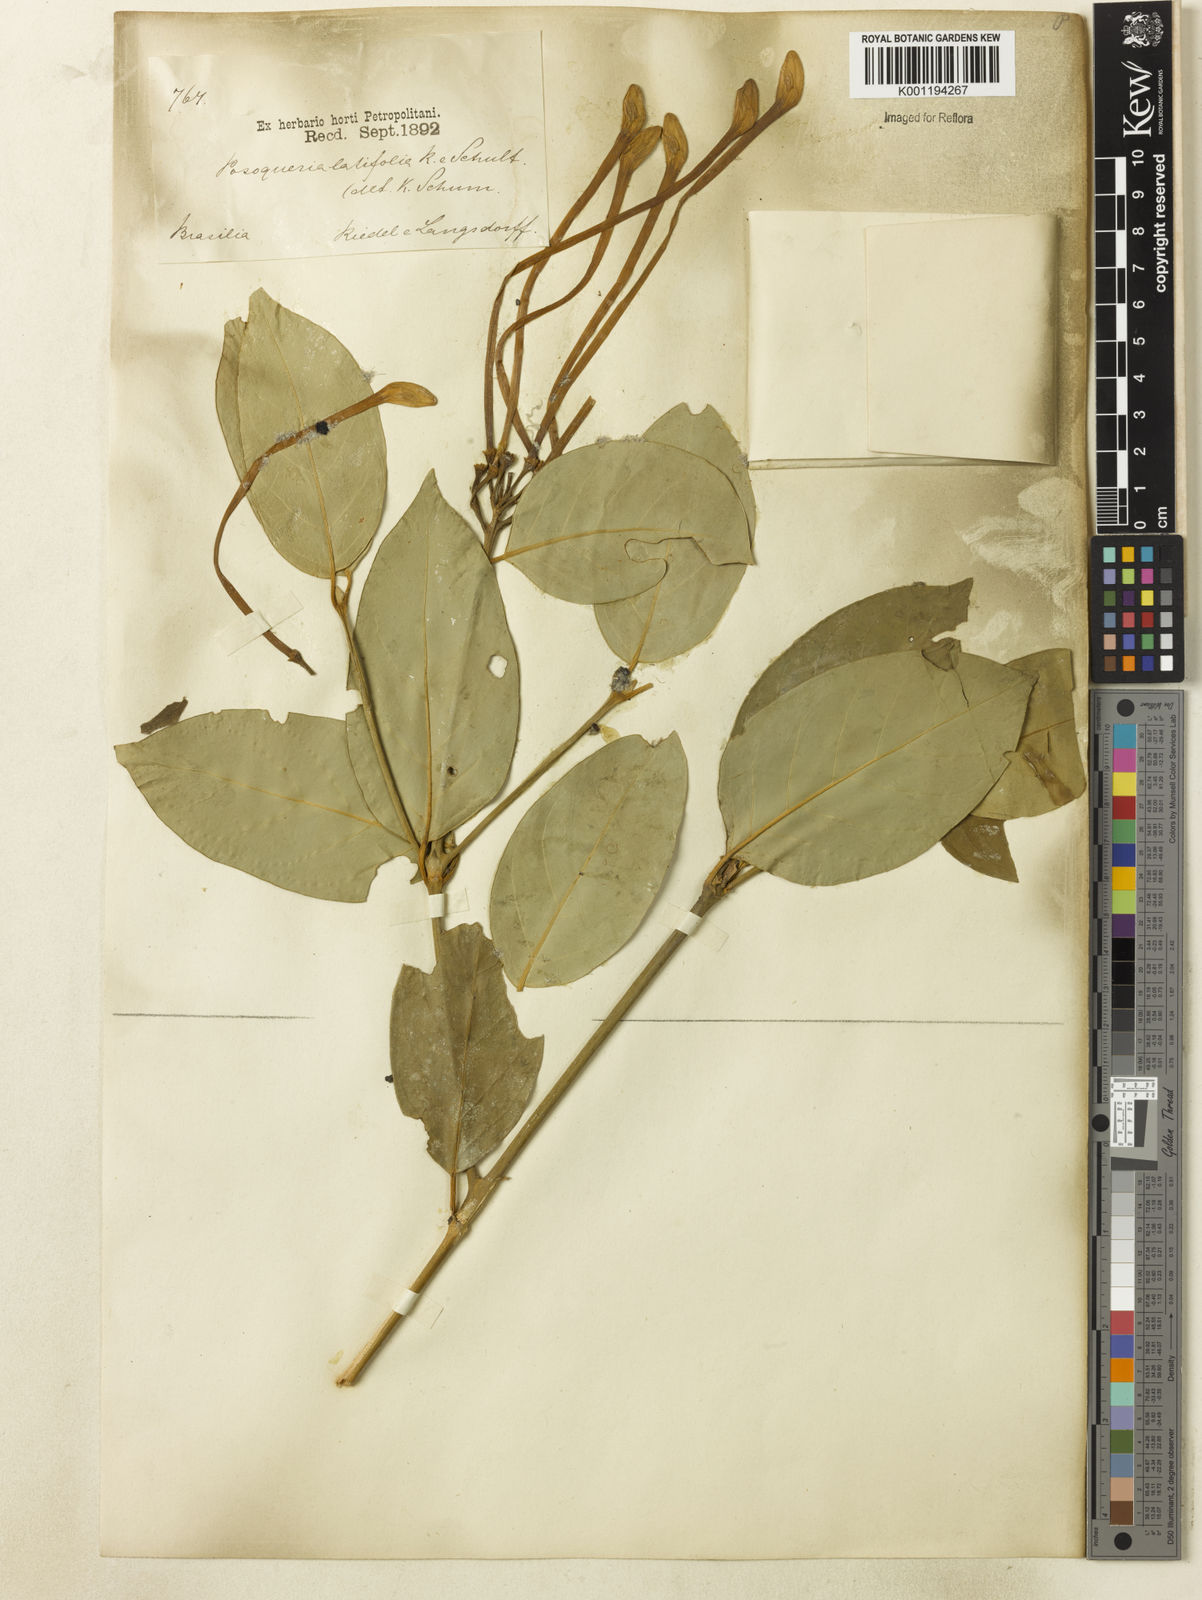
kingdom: Plantae
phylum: Tracheophyta
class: Magnoliopsida
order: Gentianales
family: Rubiaceae
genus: Posoqueria
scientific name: Posoqueria latifolia
